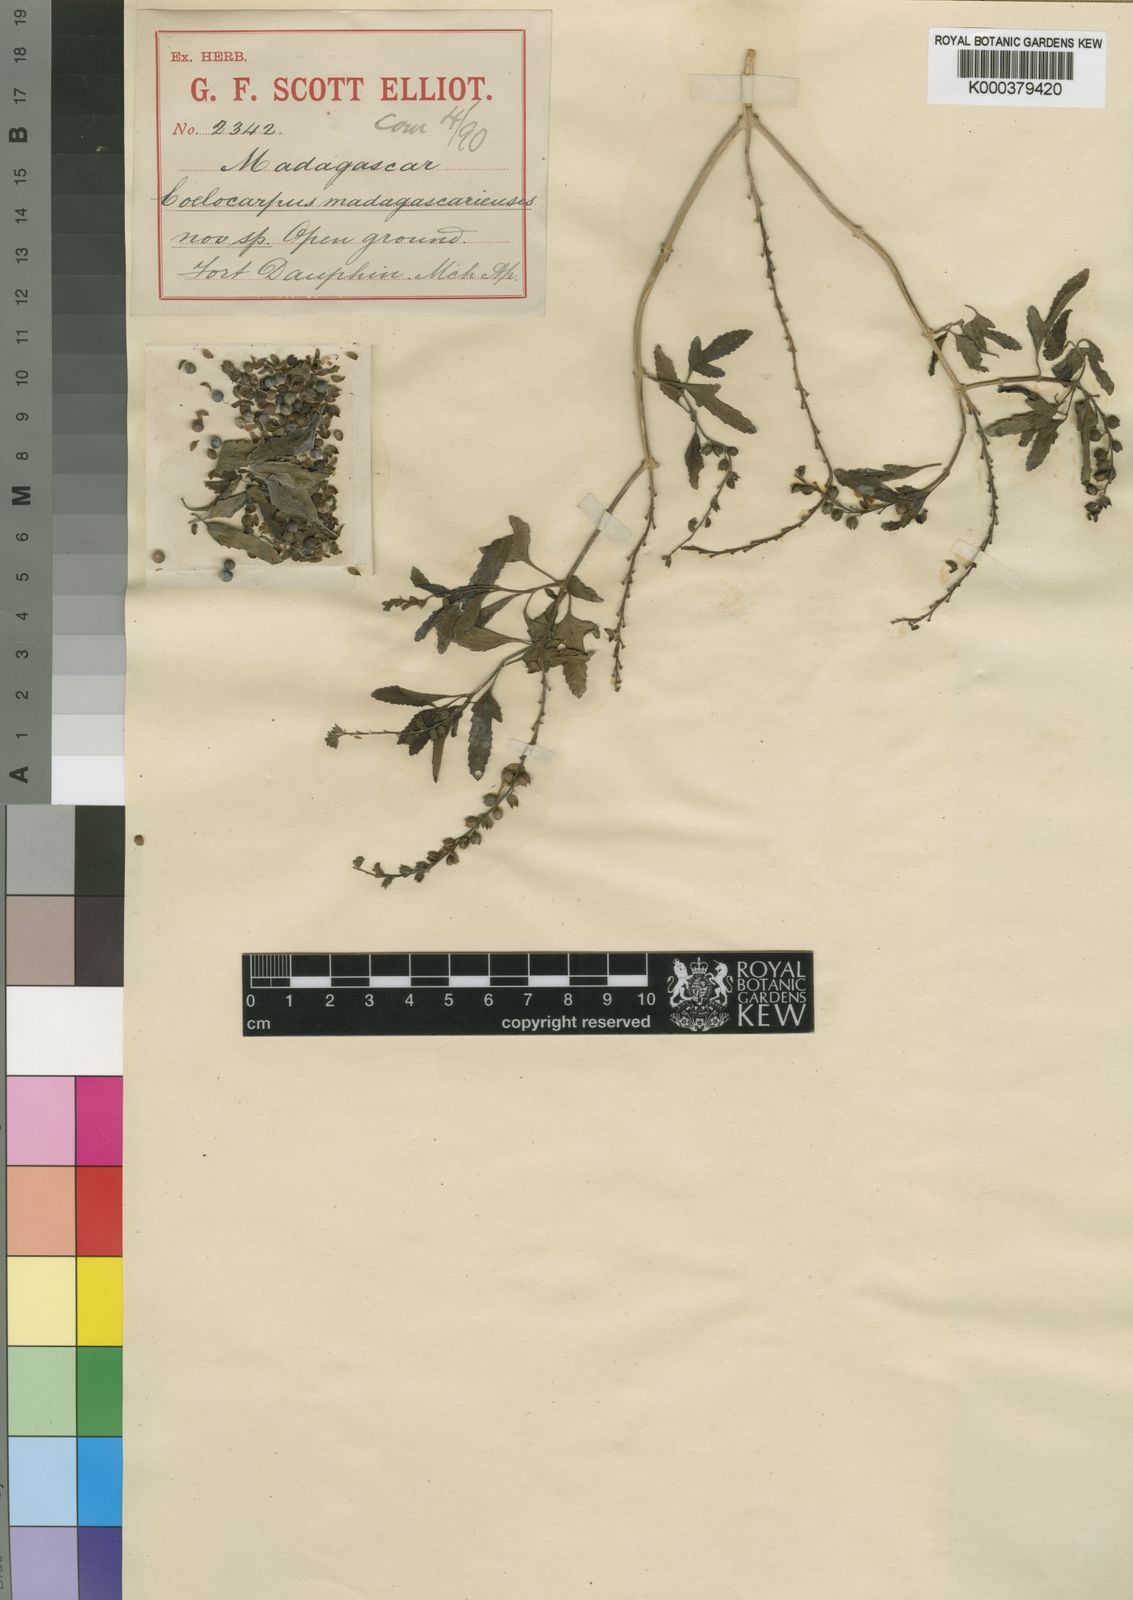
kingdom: Plantae
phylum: Tracheophyta
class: Magnoliopsida
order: Lamiales
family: Verbenaceae
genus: Coelocarpum
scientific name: Coelocarpum
